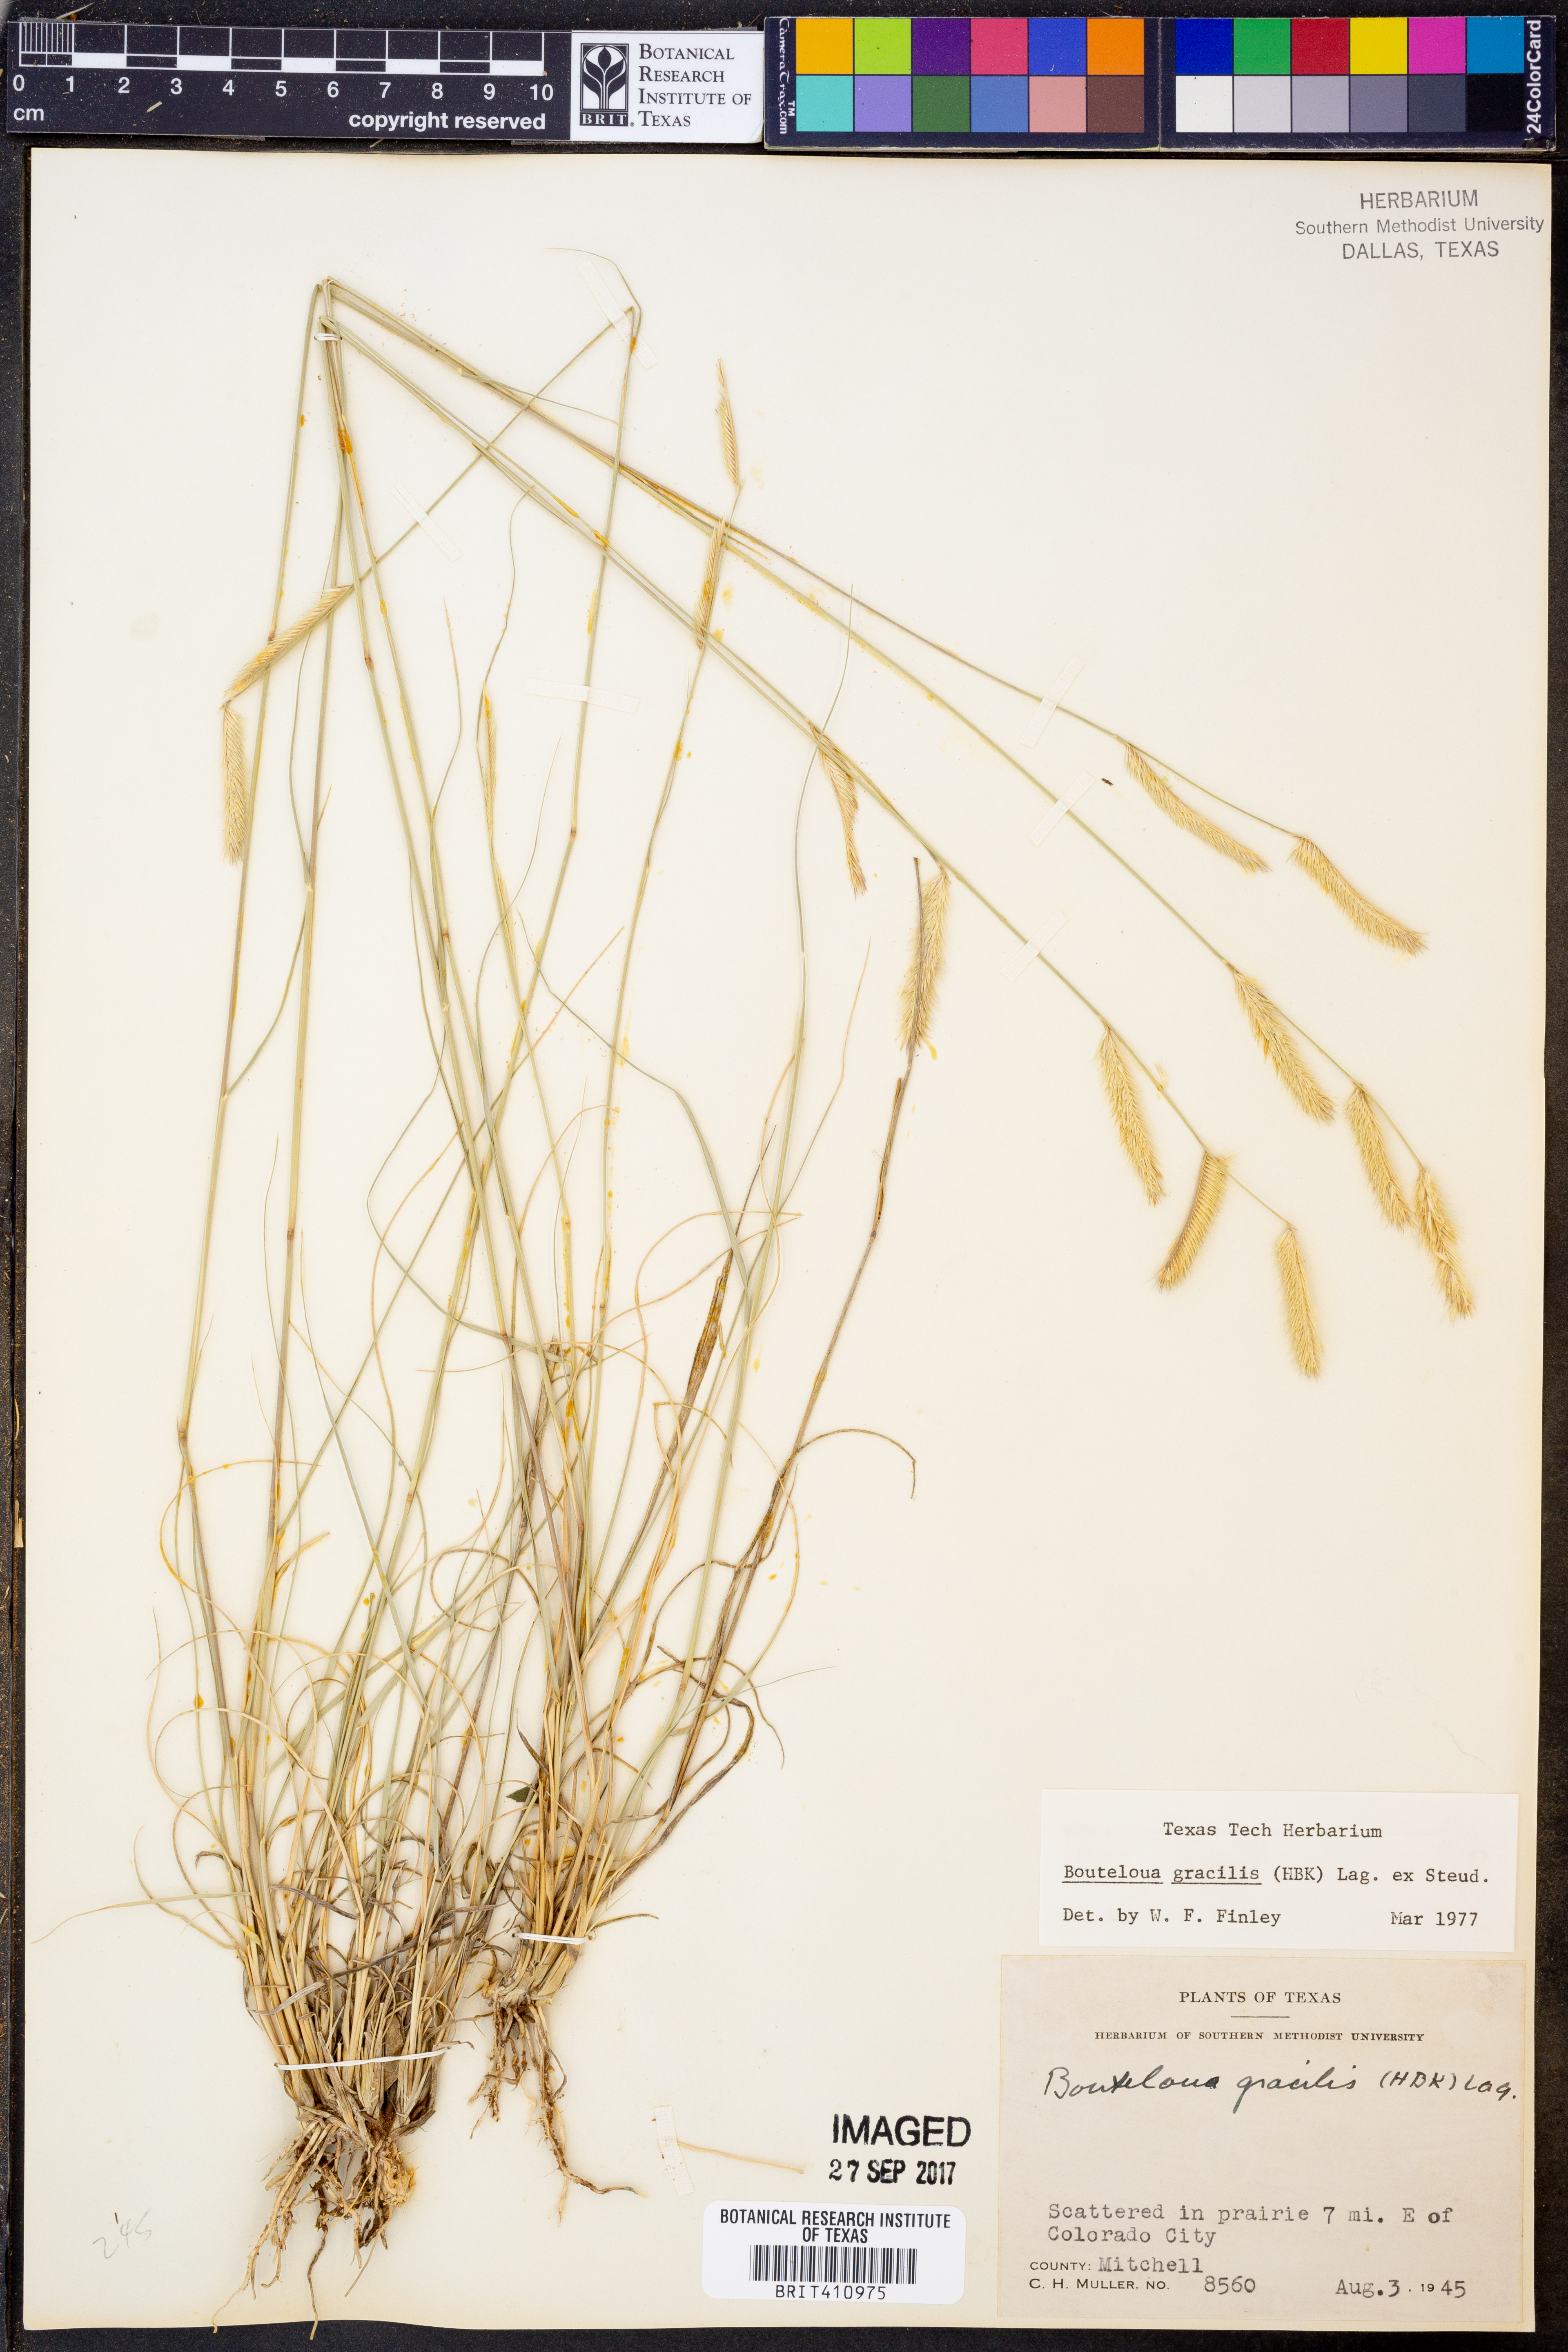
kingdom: Plantae
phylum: Tracheophyta
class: Liliopsida
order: Poales
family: Poaceae
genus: Bouteloua
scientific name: Bouteloua gracilis
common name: Blue grama
